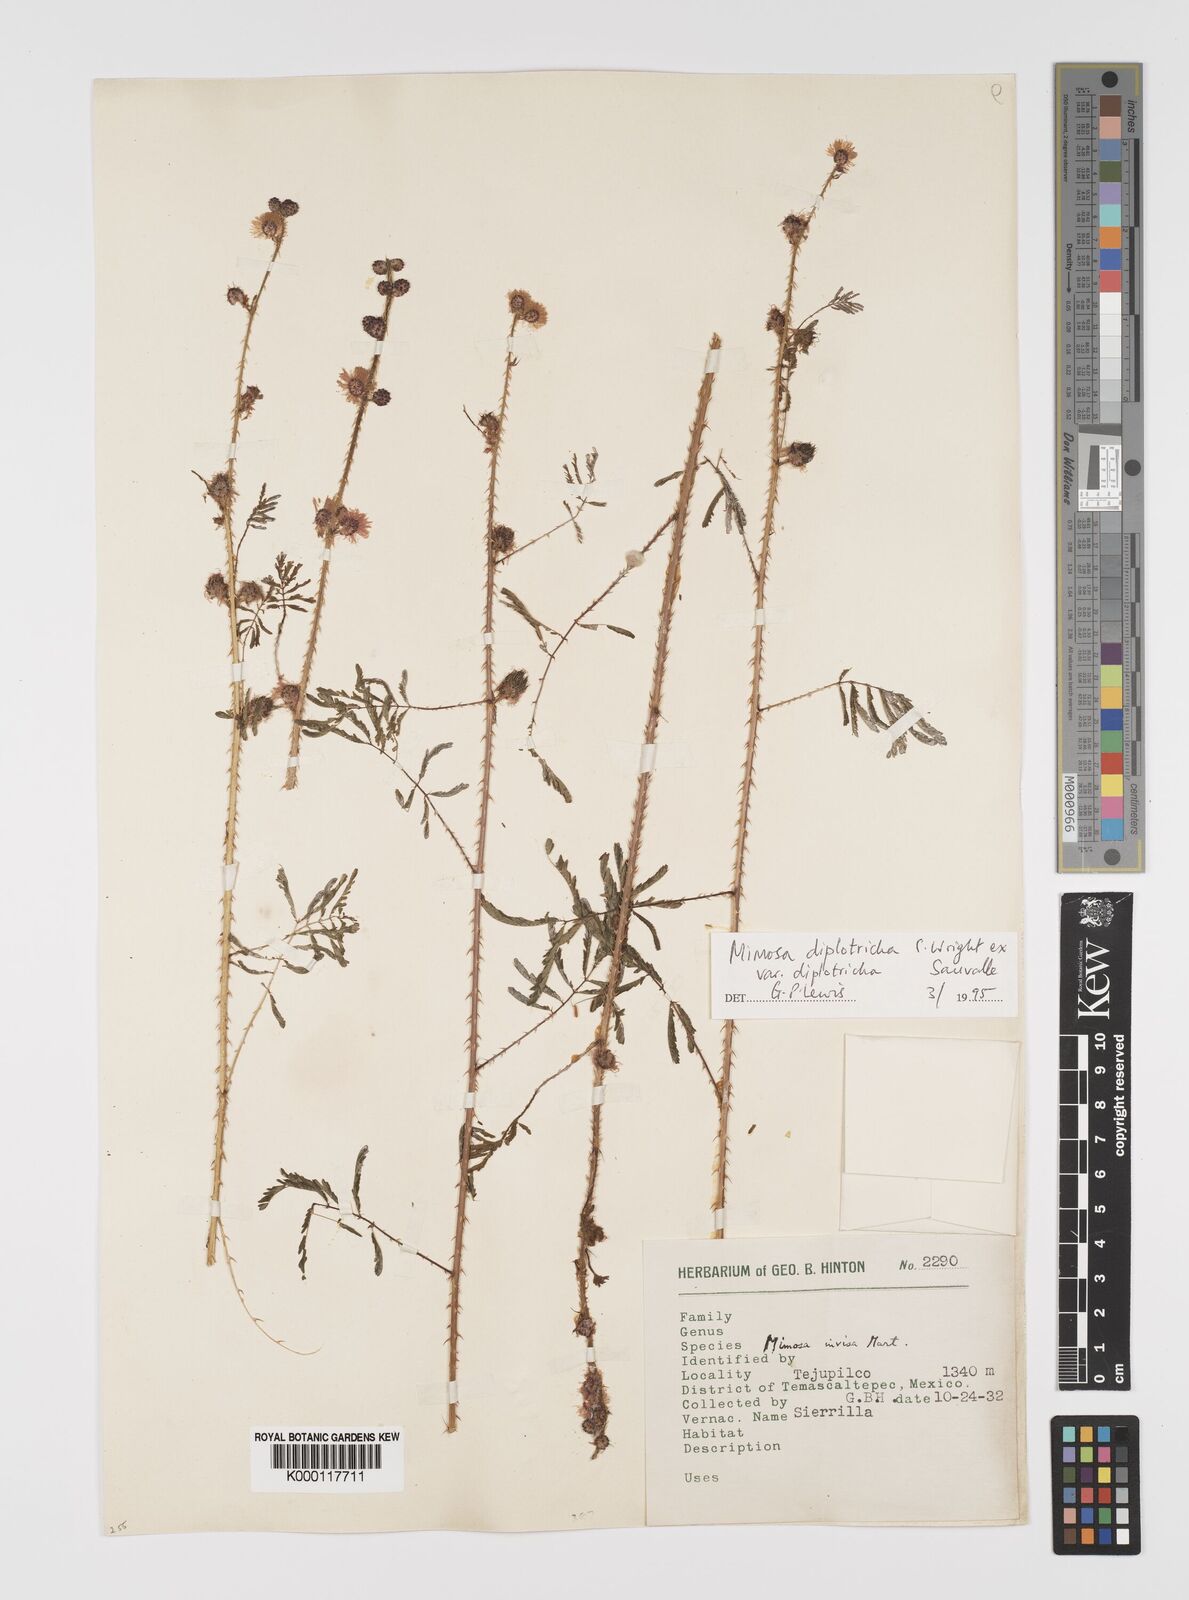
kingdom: Plantae
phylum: Tracheophyta
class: Magnoliopsida
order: Fabales
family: Fabaceae
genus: Mimosa
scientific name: Mimosa diplotricha
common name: Giant sensitive-plant
